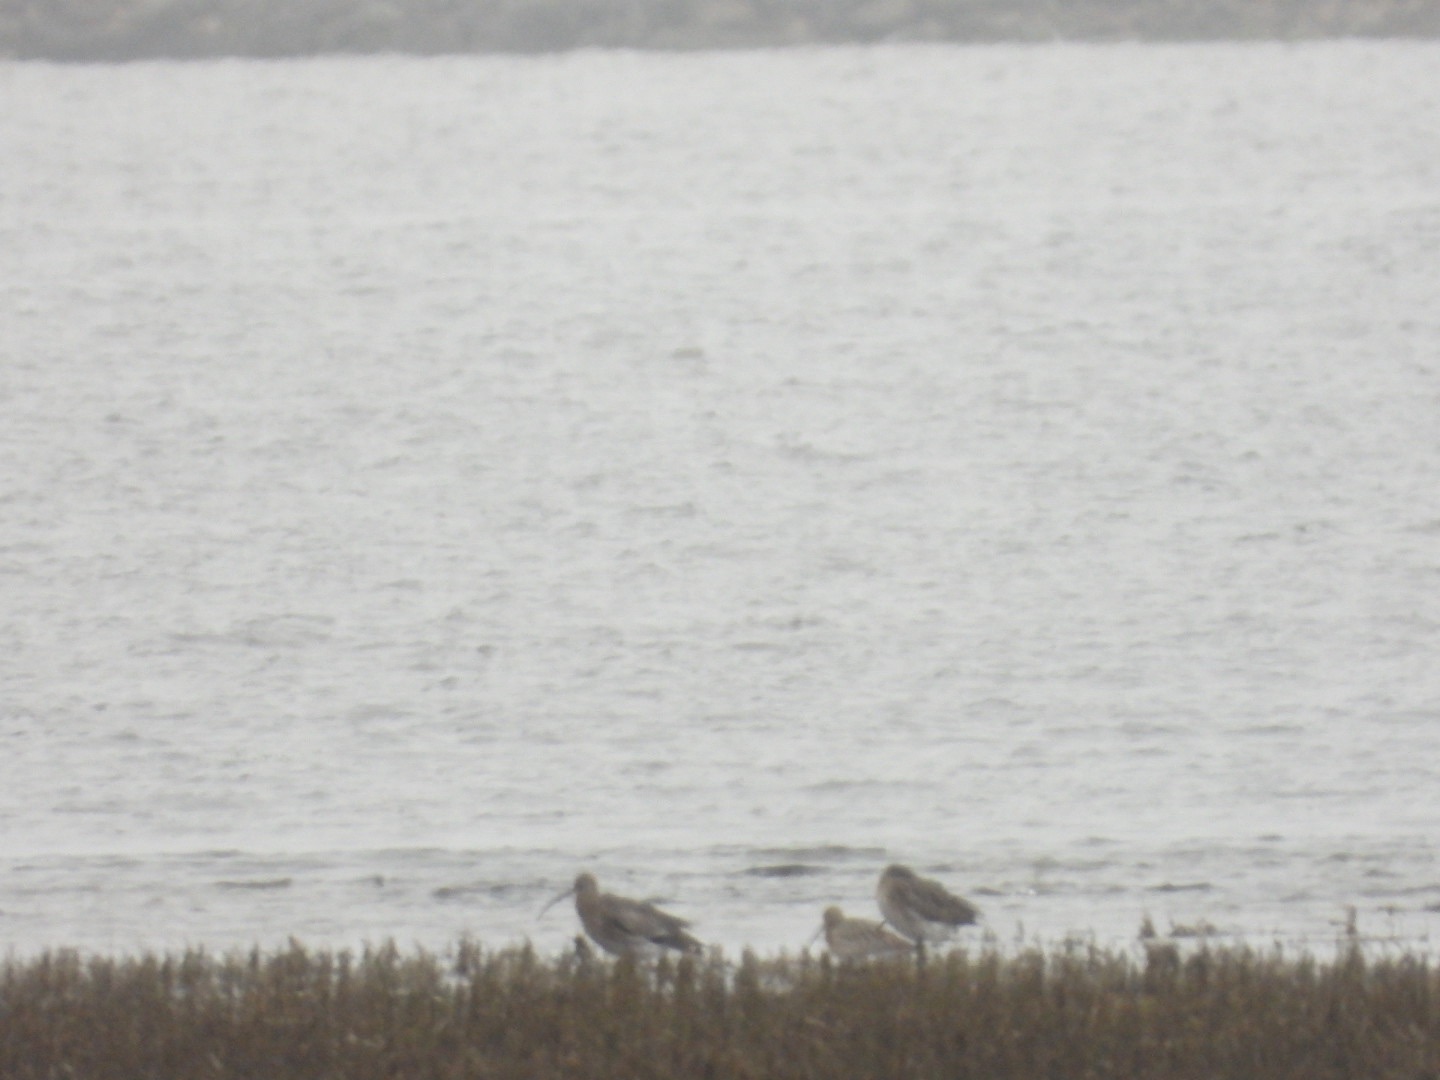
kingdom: Animalia
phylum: Chordata
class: Aves
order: Charadriiformes
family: Scolopacidae
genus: Numenius
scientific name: Numenius arquata
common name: Storspove
